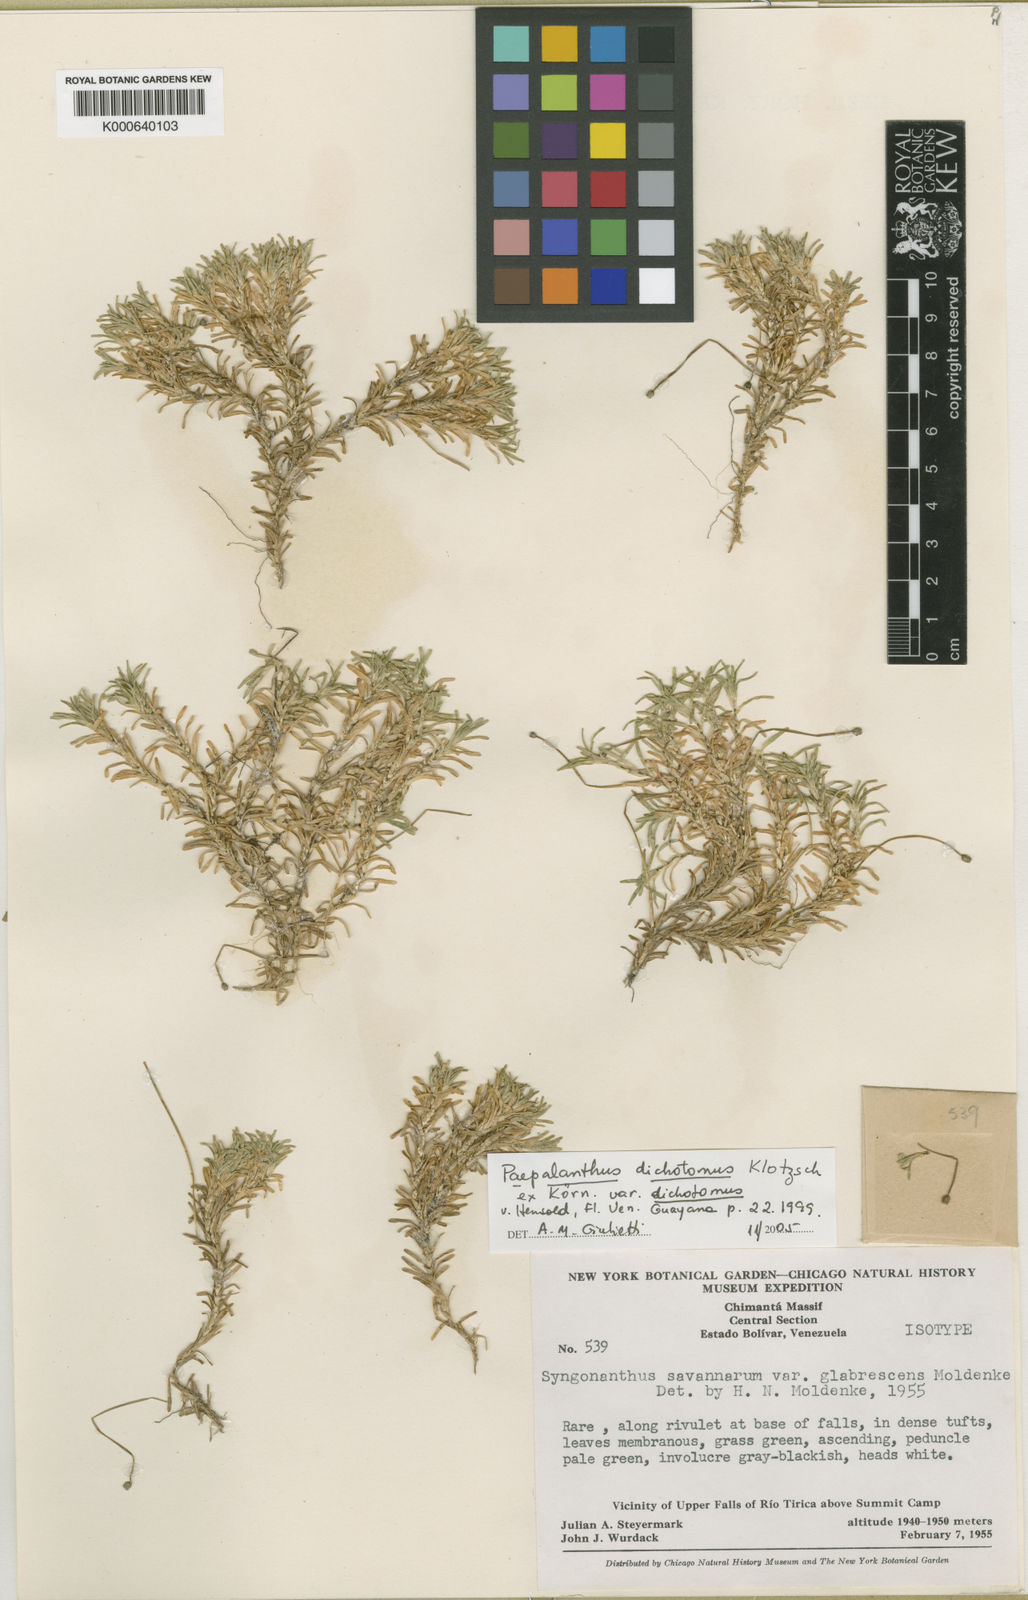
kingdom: Plantae
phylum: Tracheophyta
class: Liliopsida
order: Poales
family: Eriocaulaceae
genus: Paepalanthus
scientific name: Paepalanthus
